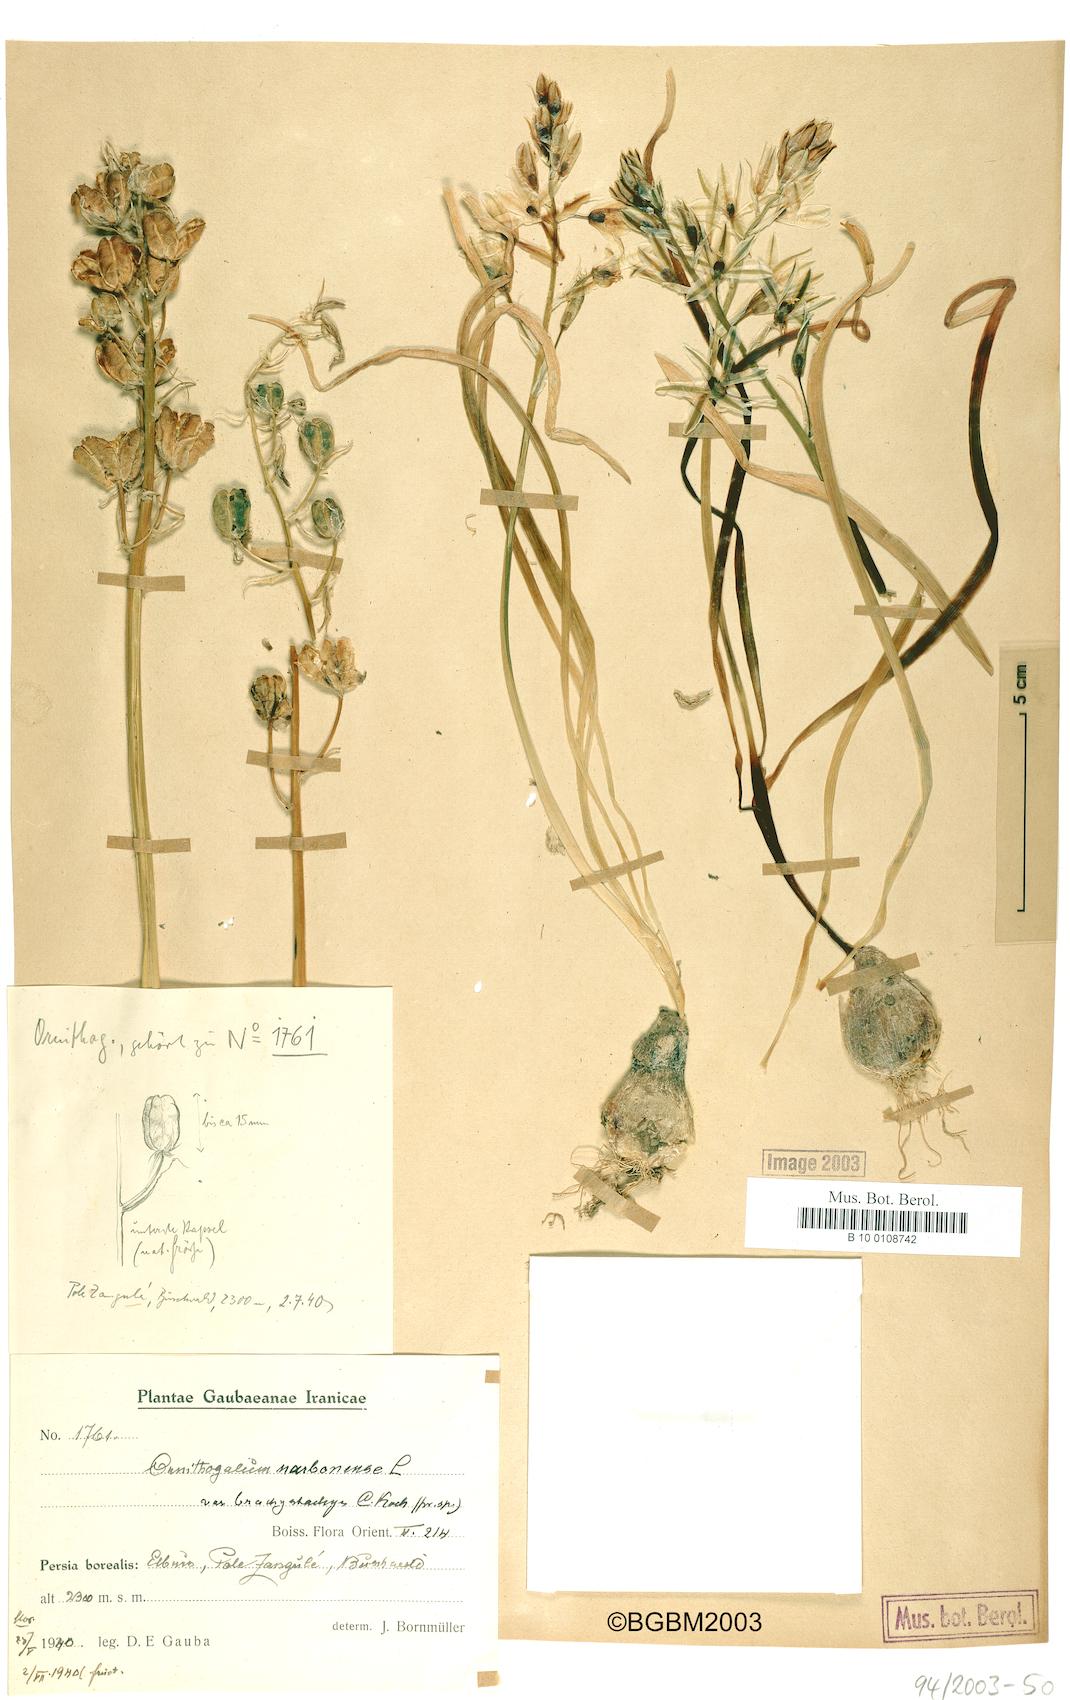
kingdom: Plantae
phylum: Tracheophyta
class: Liliopsida
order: Asparagales
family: Asparagaceae
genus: Ornithogalum
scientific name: Ornithogalum narbonense
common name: Bath-asparagus
